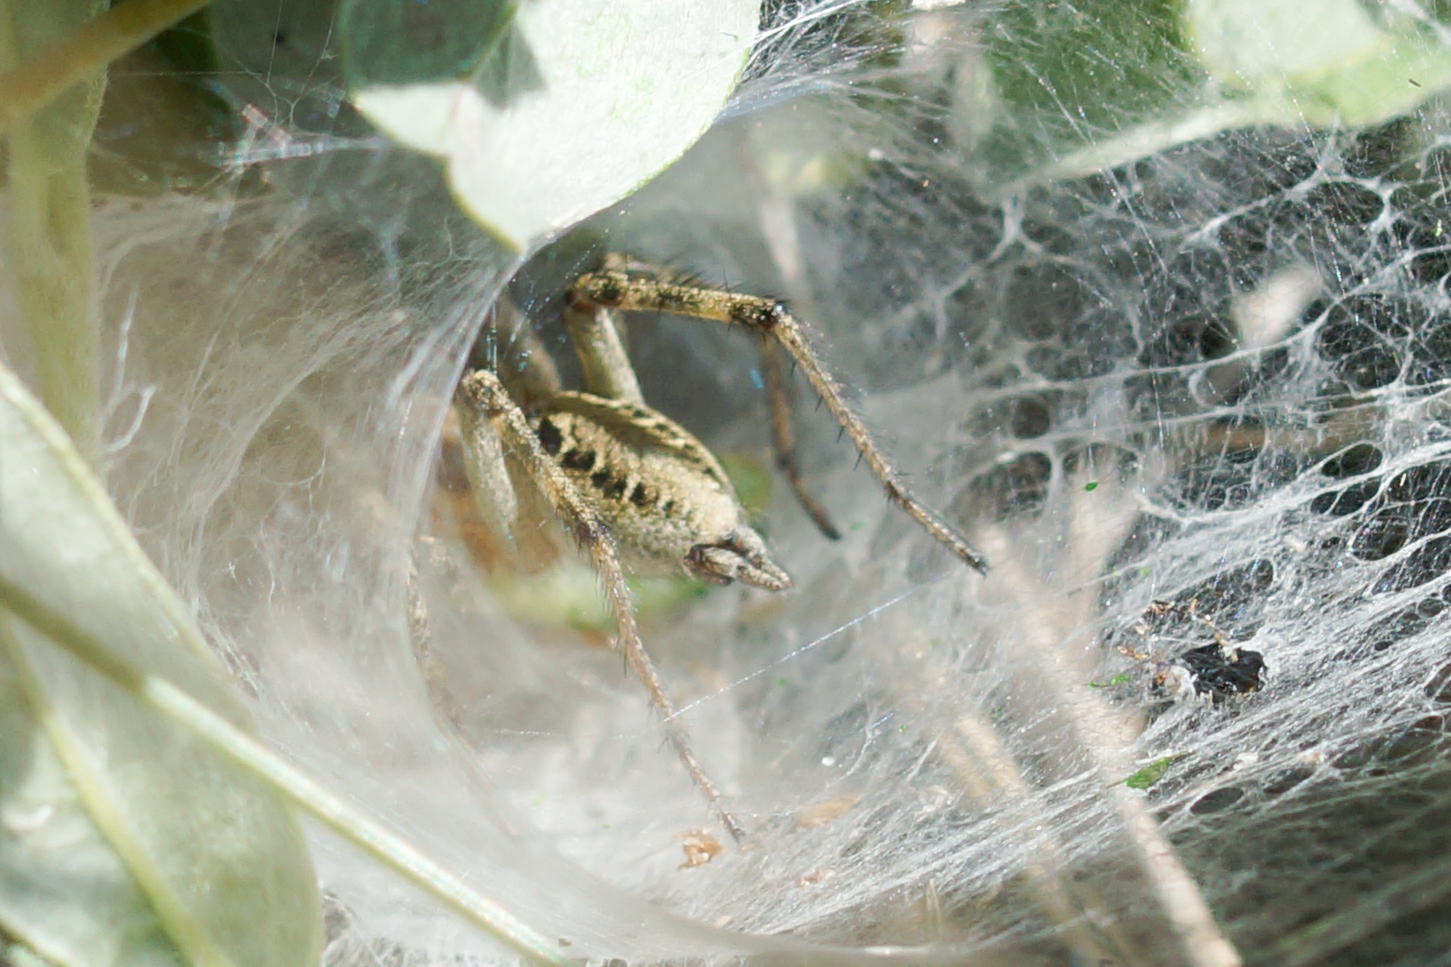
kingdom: Animalia
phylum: Arthropoda
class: Arachnida
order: Araneae
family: Agelenidae
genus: Agelena
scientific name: Agelena labyrinthica
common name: Labyrintedderkop
